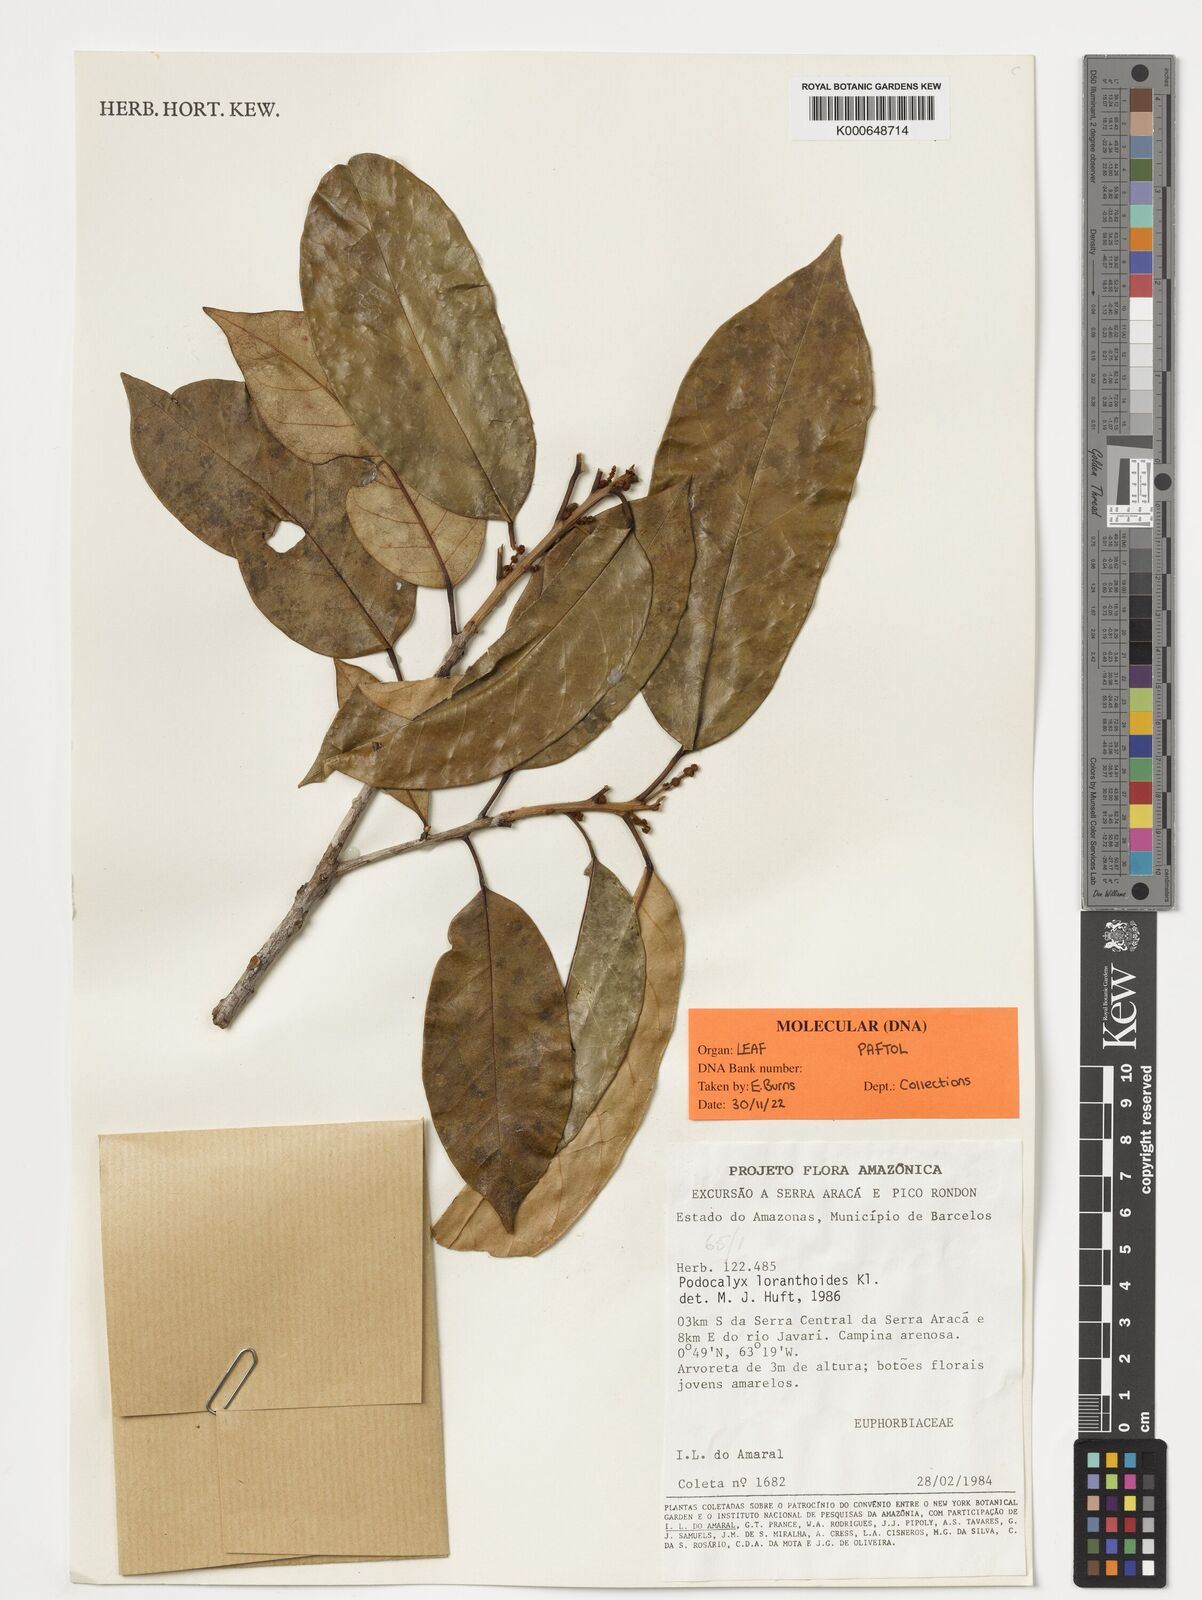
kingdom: Plantae
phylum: Tracheophyta
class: Magnoliopsida
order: Malpighiales
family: Picrodendraceae
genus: Podocalyx
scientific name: Podocalyx loranthoides
